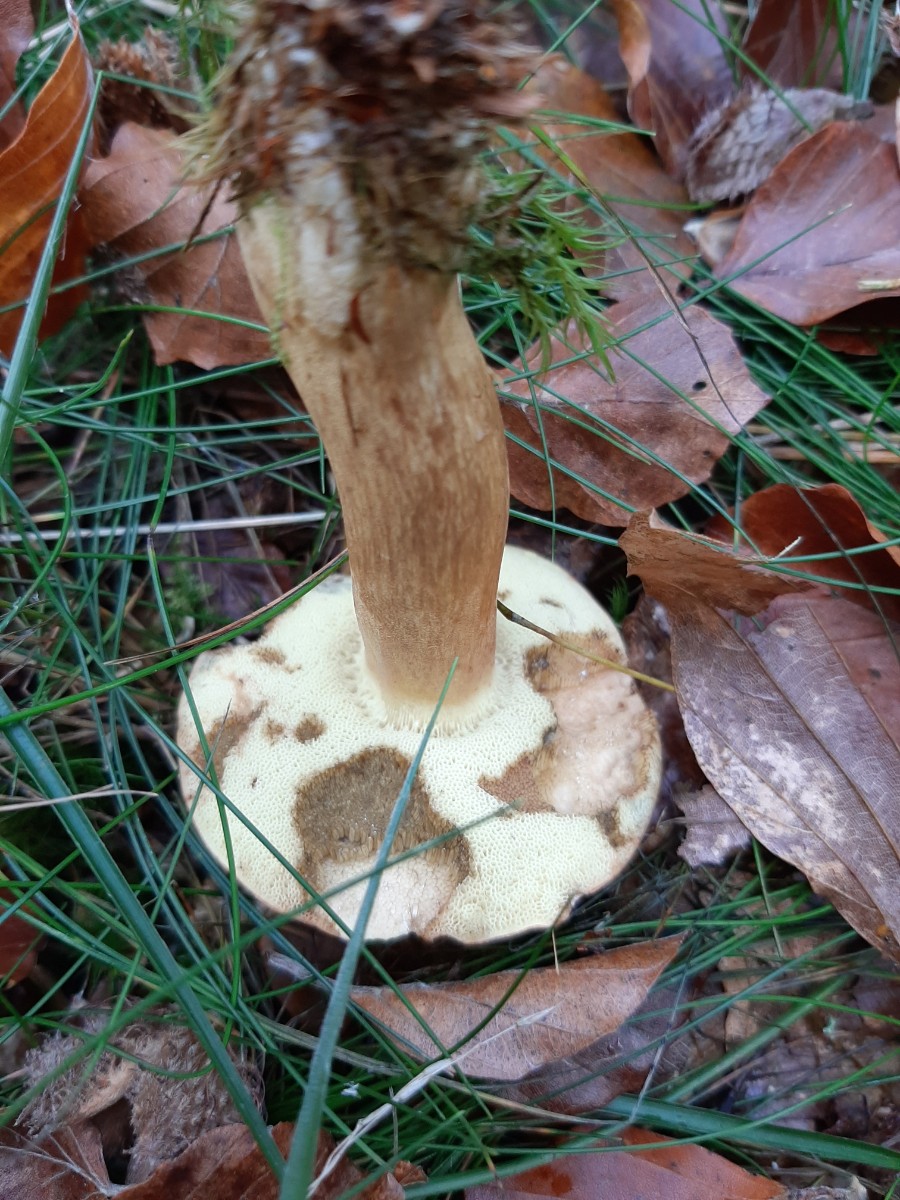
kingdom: Fungi
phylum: Basidiomycota
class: Agaricomycetes
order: Boletales
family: Boletaceae
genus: Imleria
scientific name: Imleria badia
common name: brunstokket rørhat
